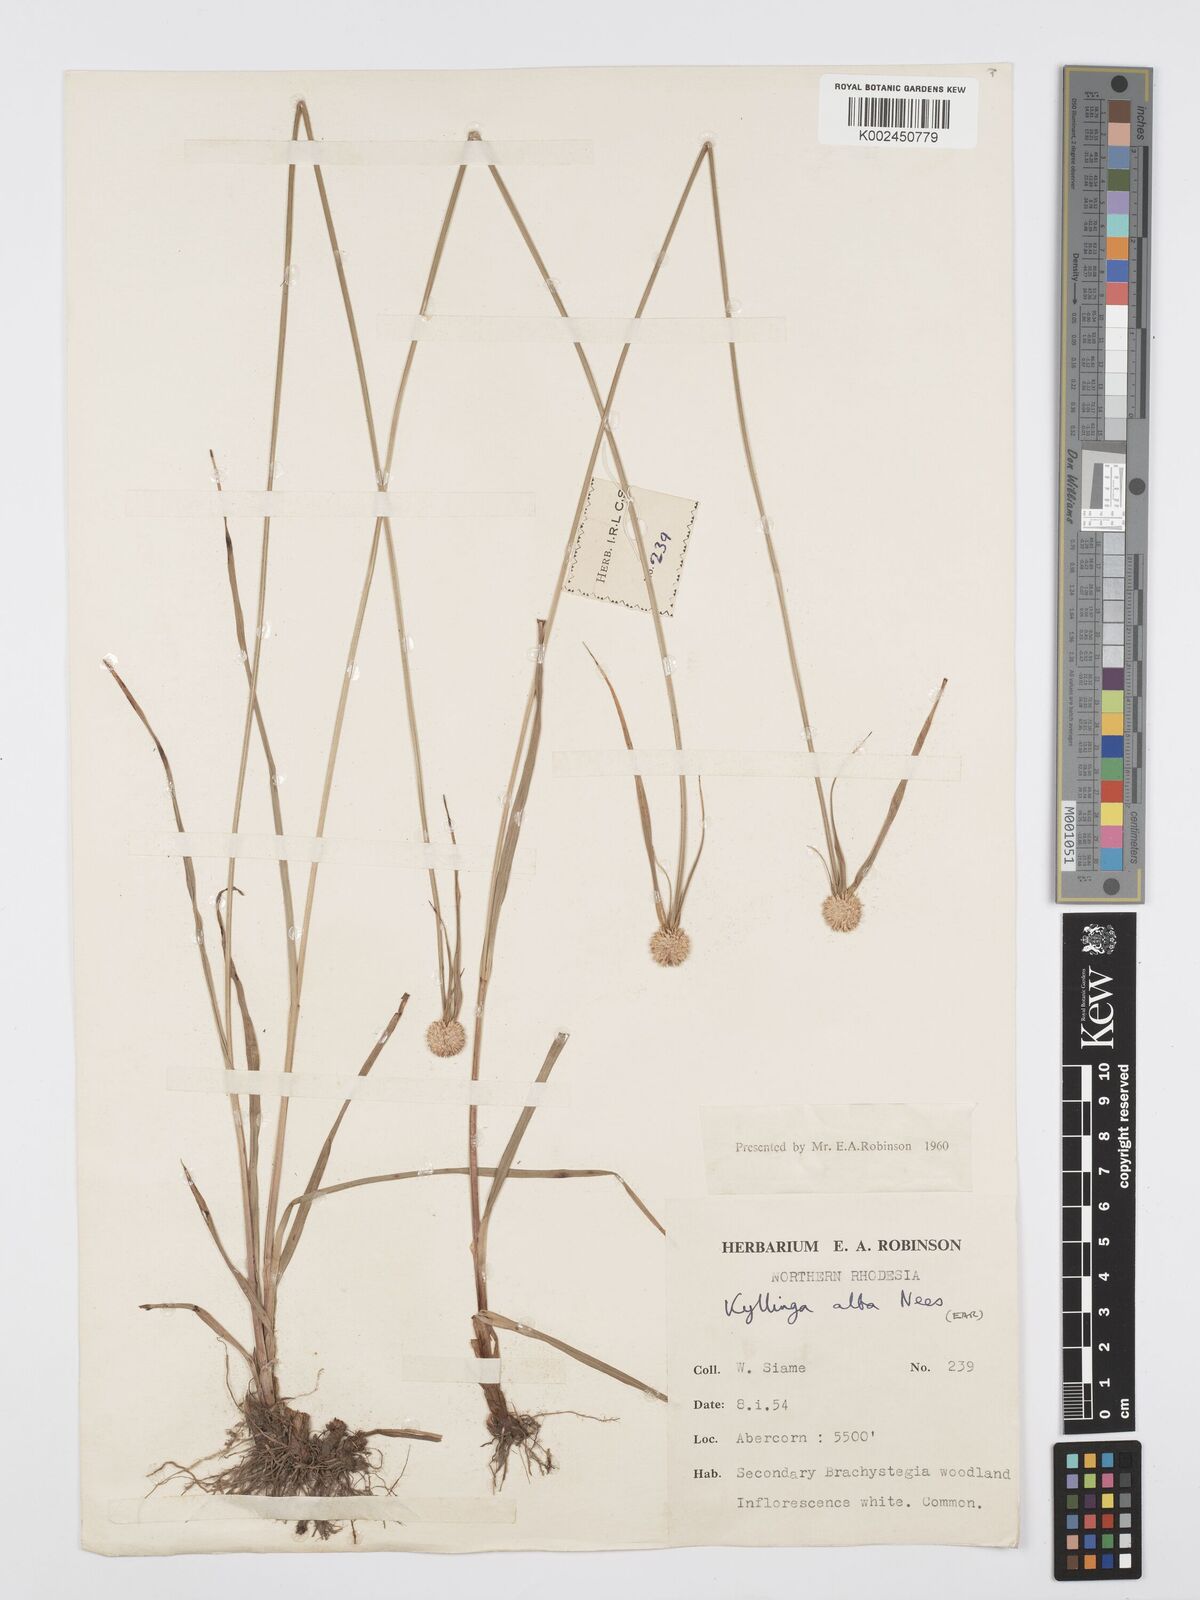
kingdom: Plantae
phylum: Tracheophyta
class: Liliopsida
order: Poales
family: Cyperaceae
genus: Cyperus
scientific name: Cyperus rukwanus
